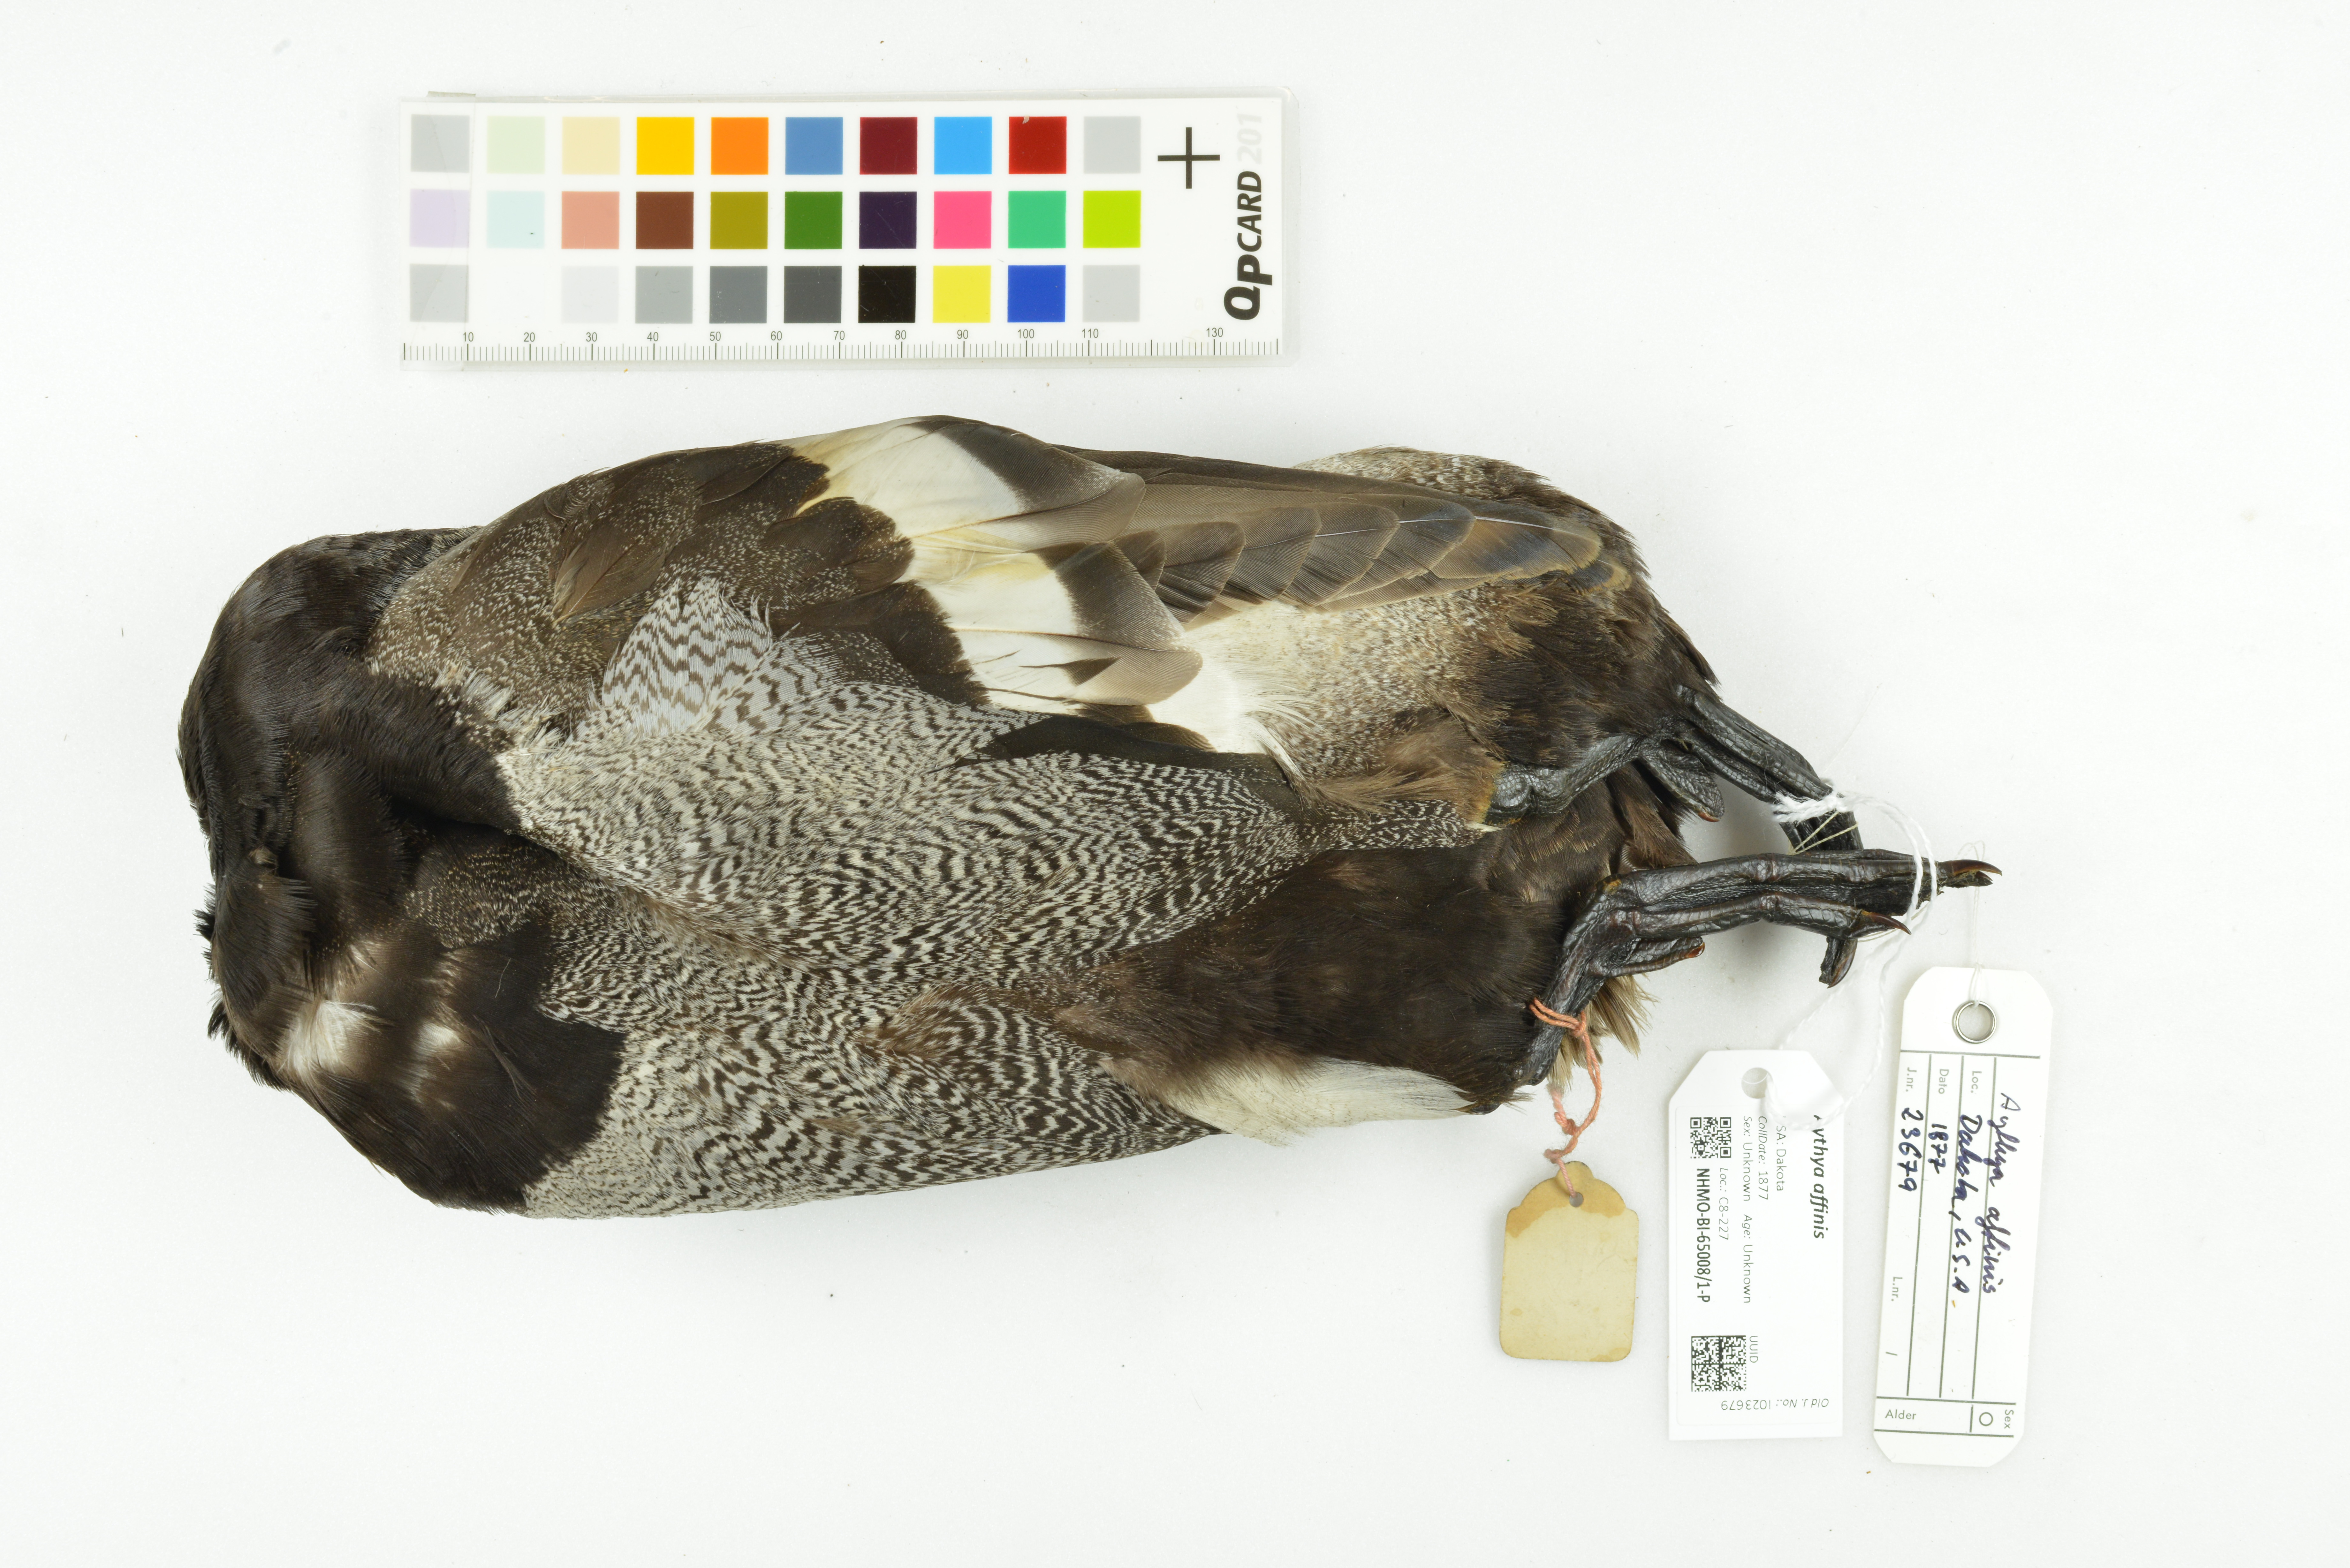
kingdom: Animalia
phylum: Chordata
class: Aves
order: Anseriformes
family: Anatidae
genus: Aythya
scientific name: Aythya affinis
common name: Lesser scaup
